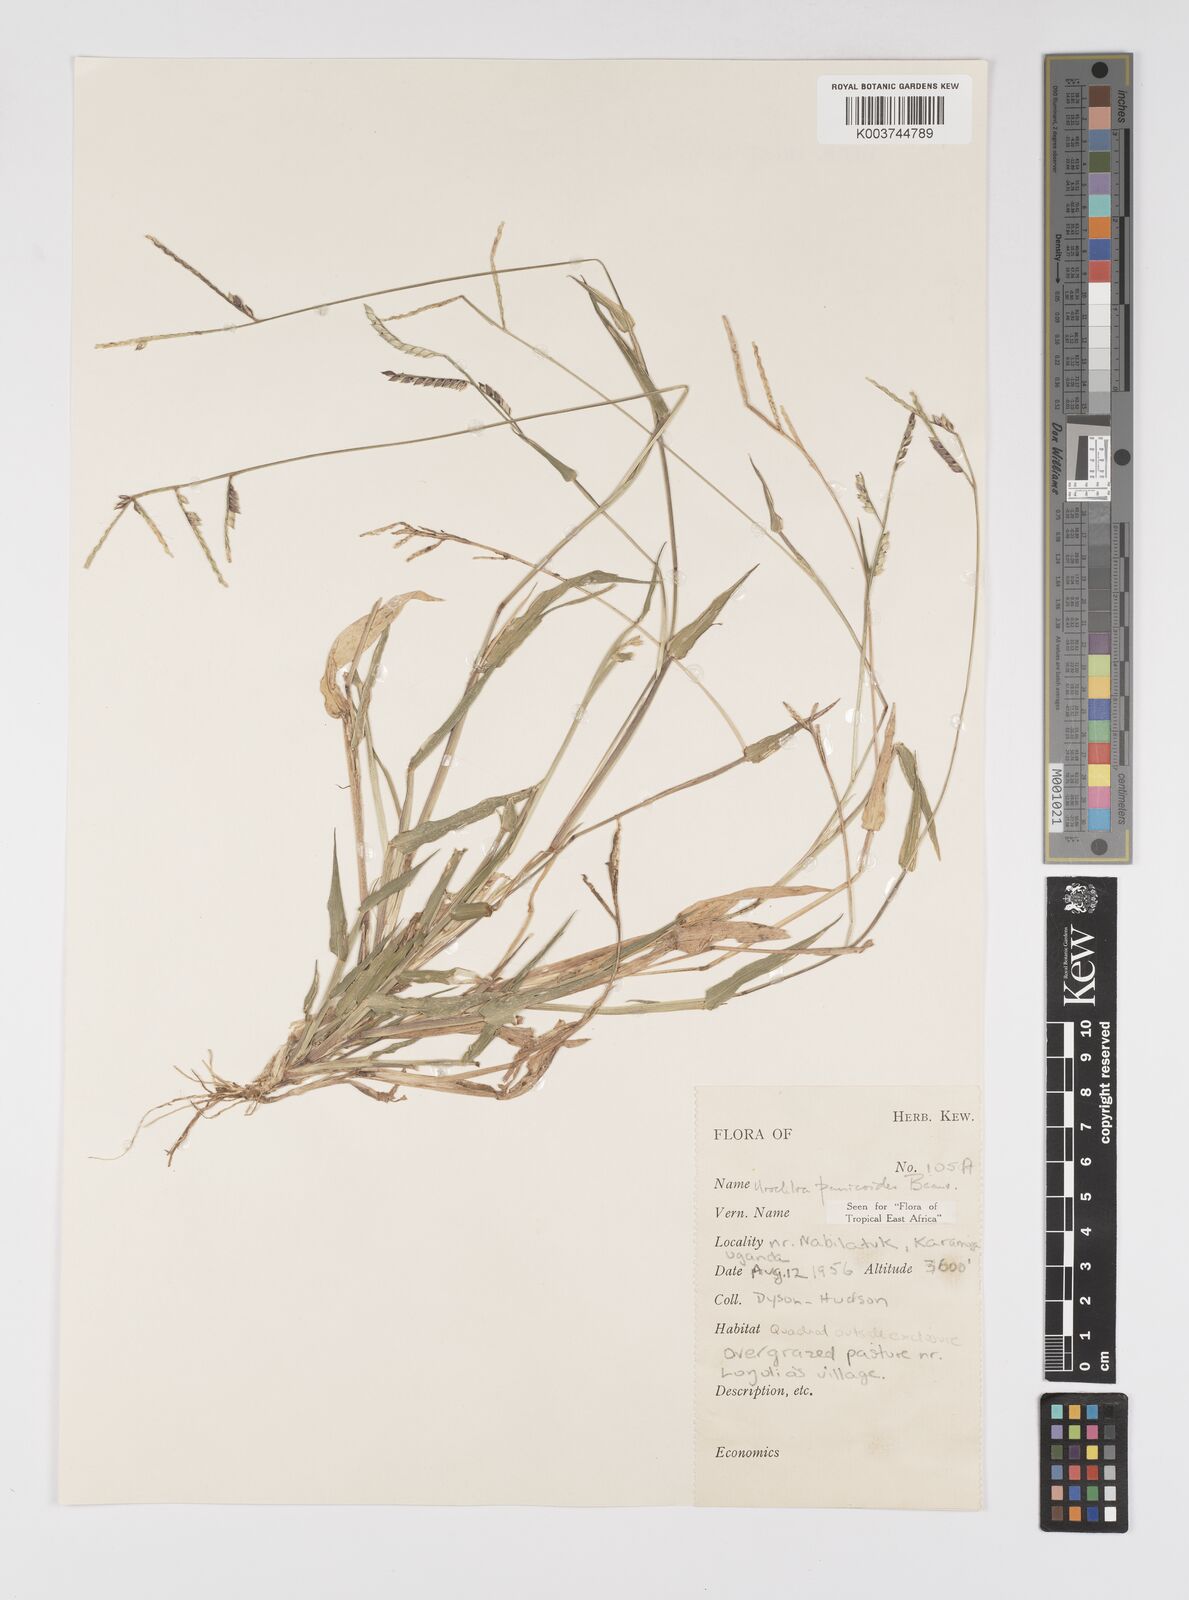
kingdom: Plantae
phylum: Tracheophyta
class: Liliopsida
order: Poales
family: Poaceae
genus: Urochloa
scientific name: Urochloa panicoides
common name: Sharp-flowered signal-grass
